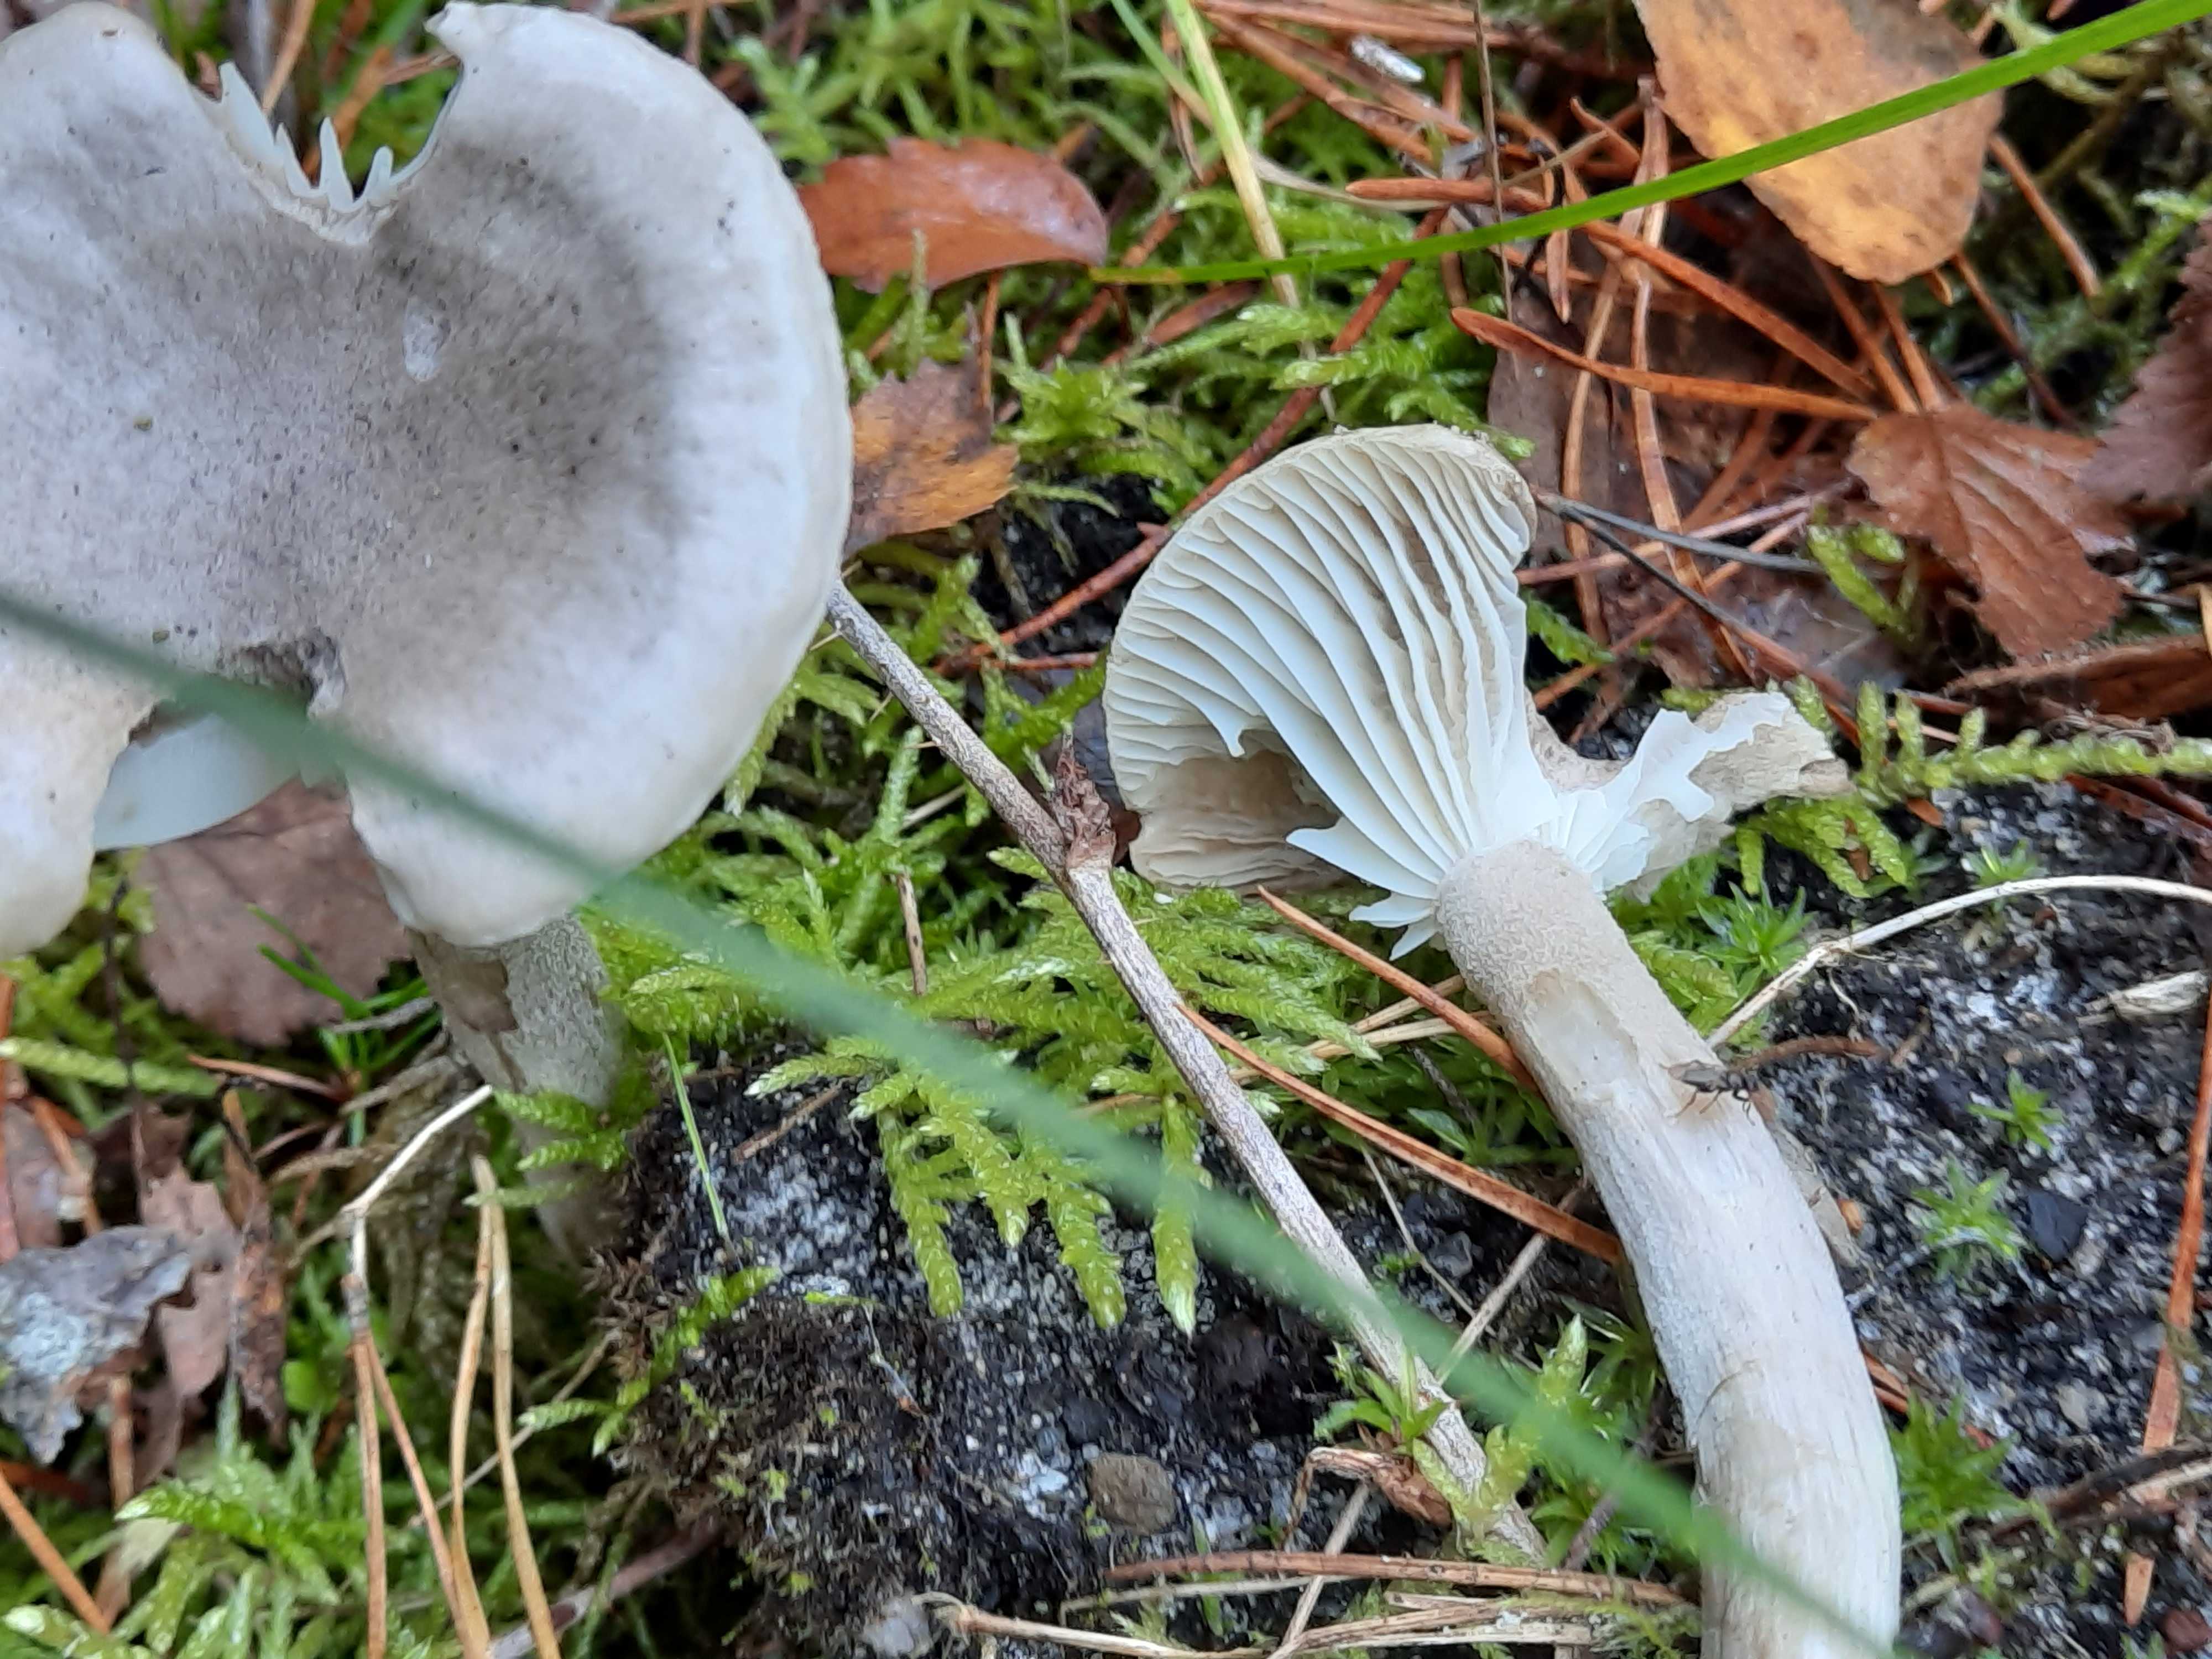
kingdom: Fungi
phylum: Basidiomycota
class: Agaricomycetes
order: Agaricales
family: Hygrophoraceae
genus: Hygrophorus
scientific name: Hygrophorus agathosmus
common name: vellugtende sneglehat
